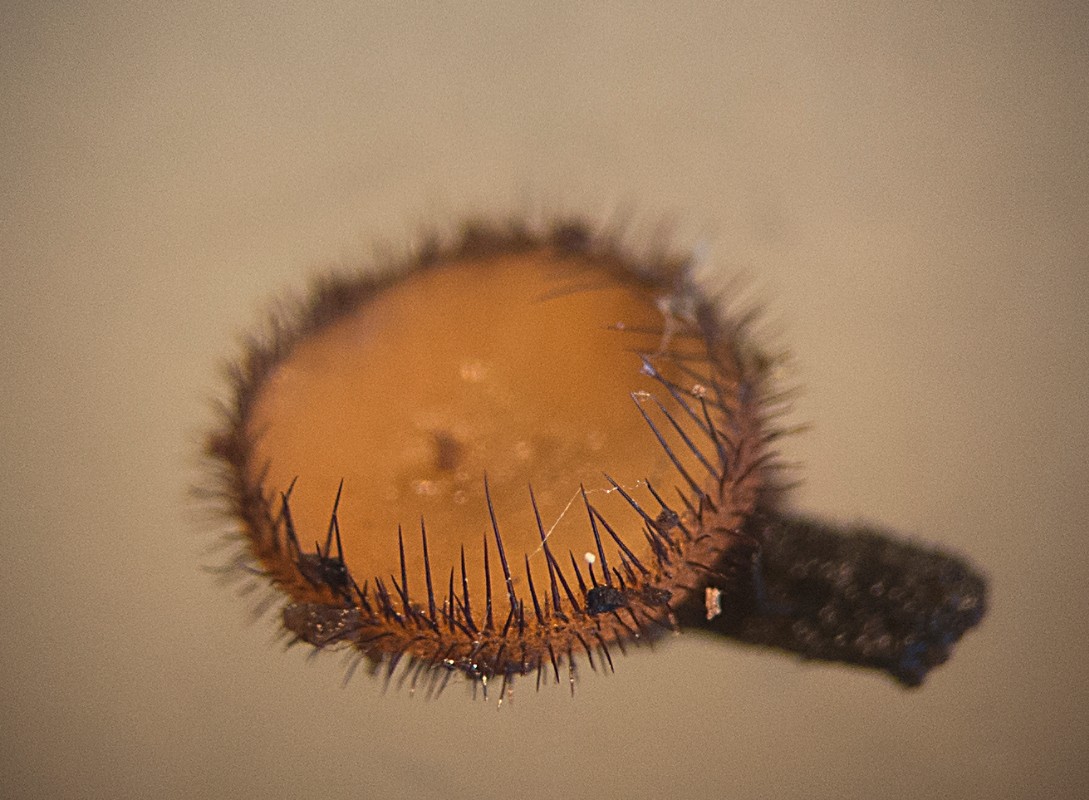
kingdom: Fungi
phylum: Ascomycota
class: Pezizomycetes
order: Pezizales
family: Pyronemataceae
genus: Scutellinia
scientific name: Scutellinia
